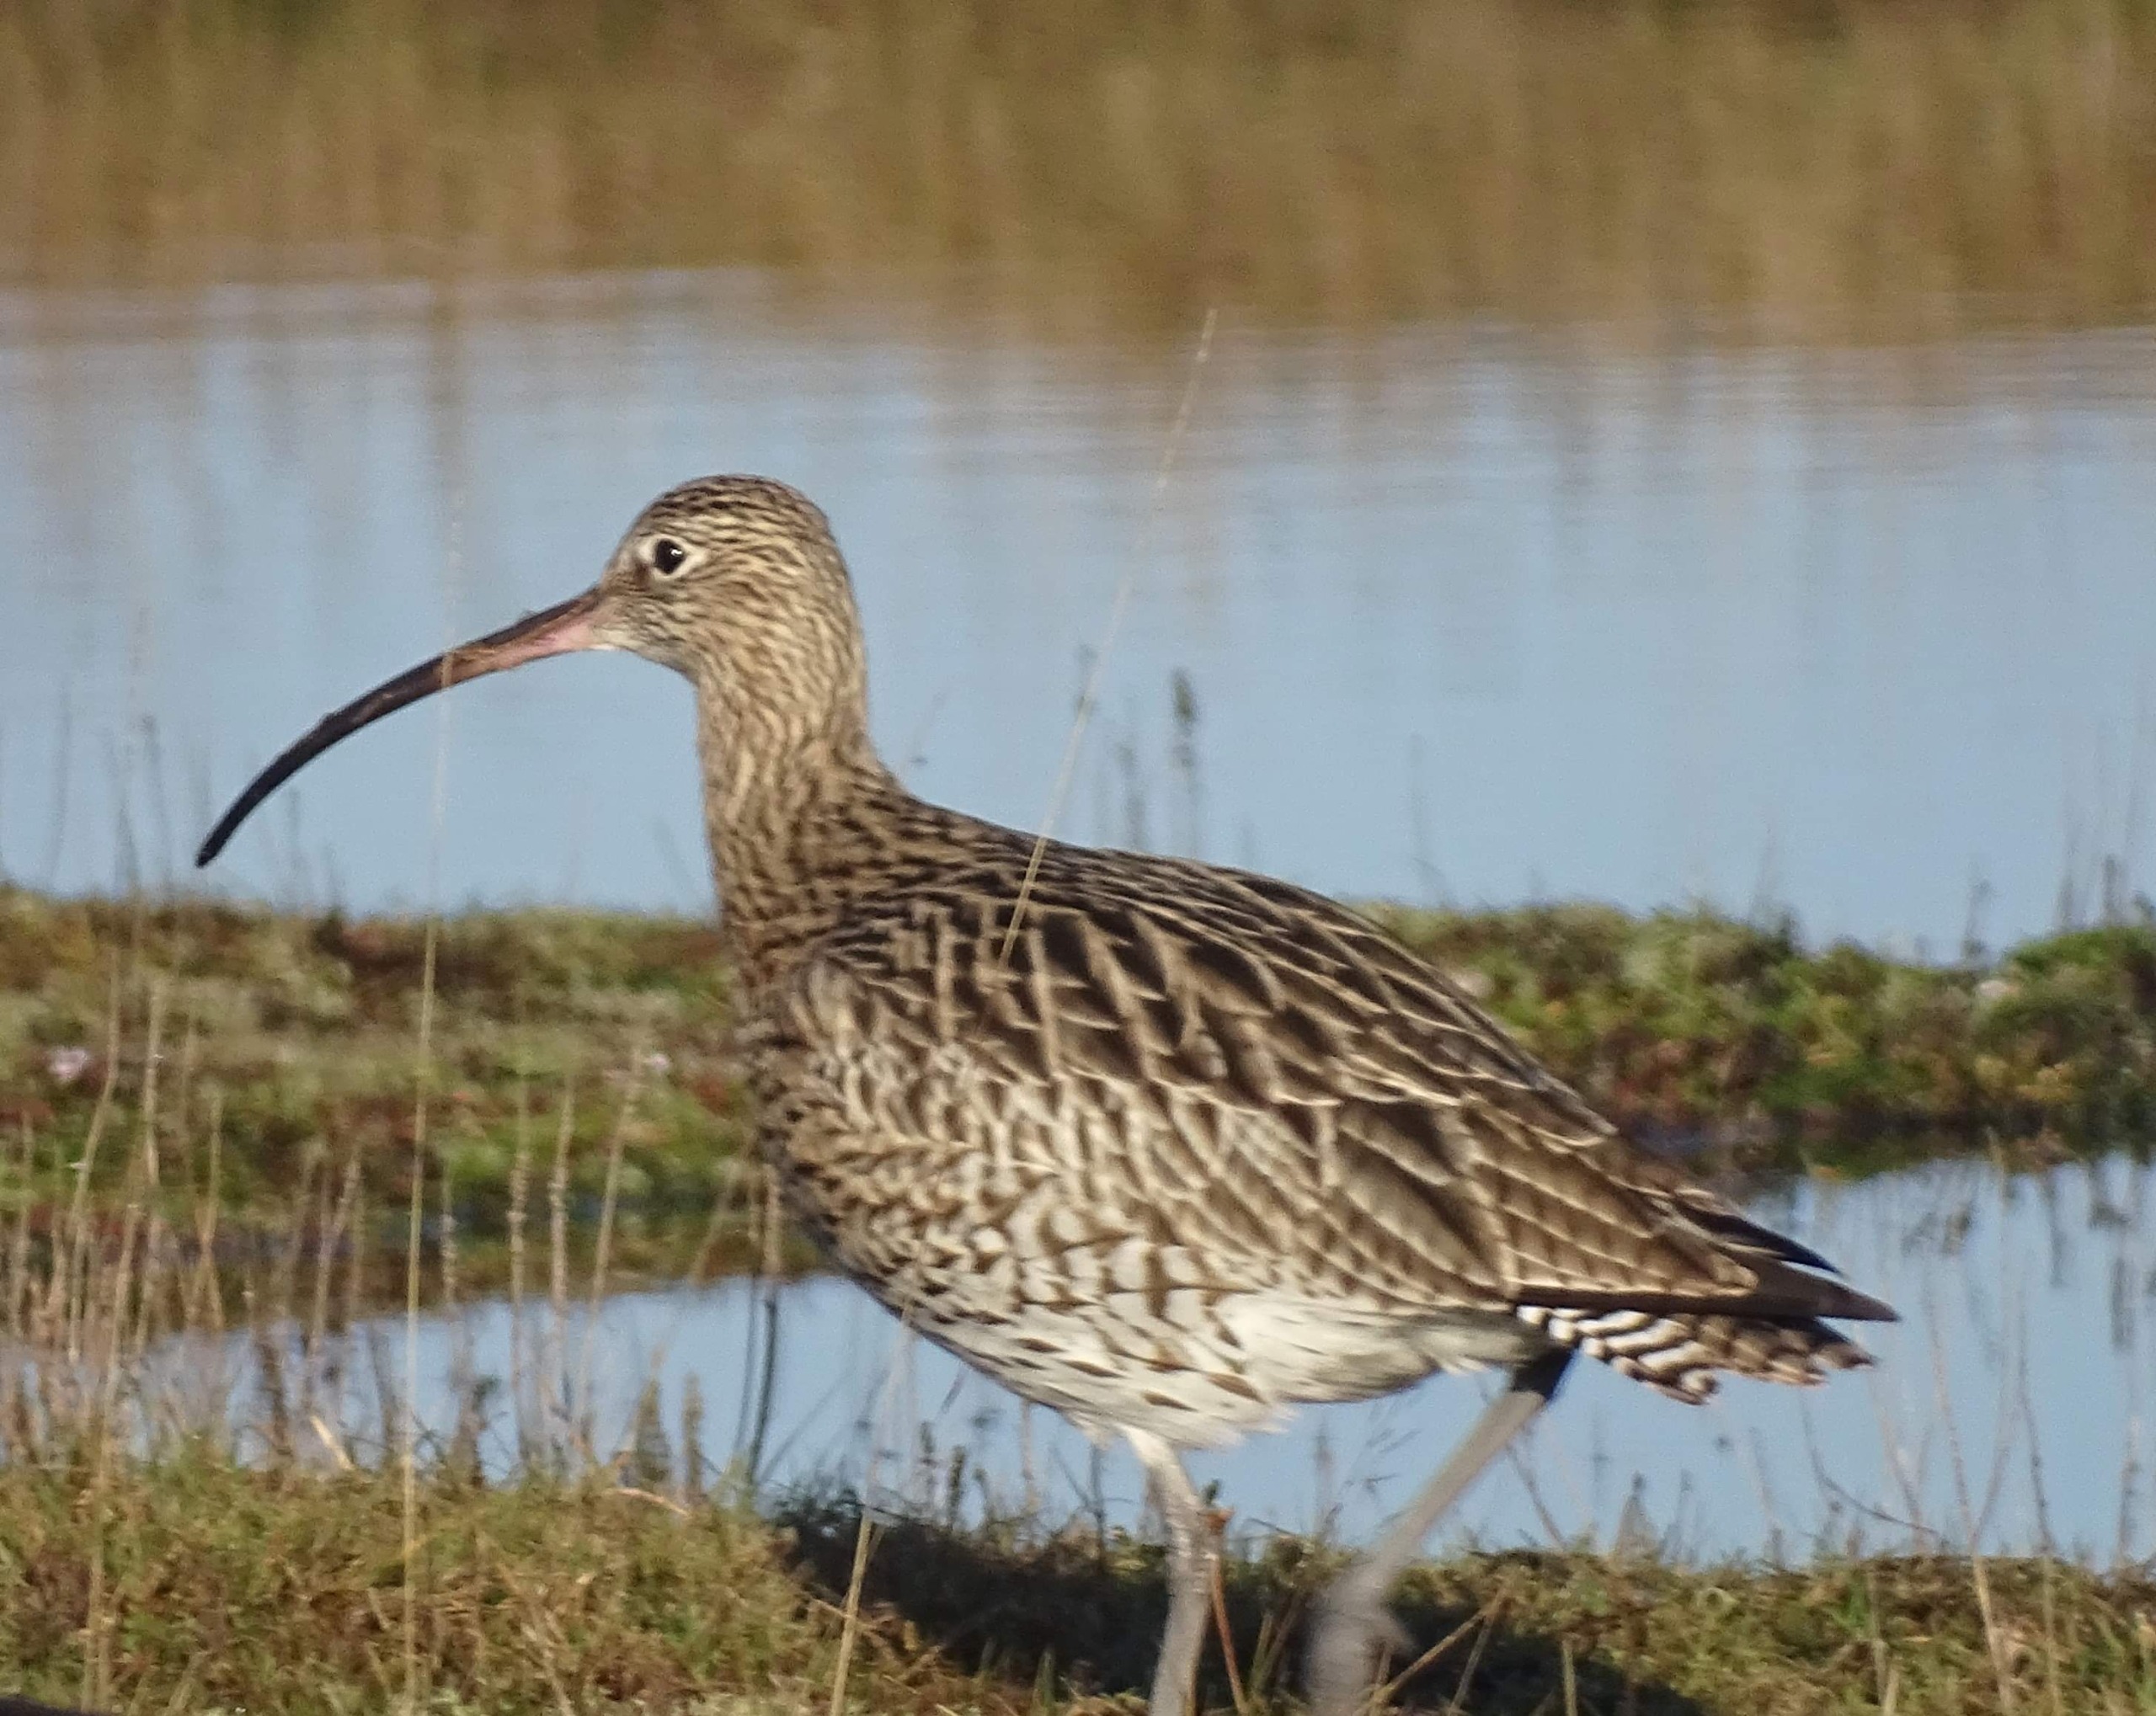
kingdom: Animalia
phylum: Chordata
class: Aves
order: Charadriiformes
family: Scolopacidae
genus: Numenius
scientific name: Numenius arquata
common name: Storspove
